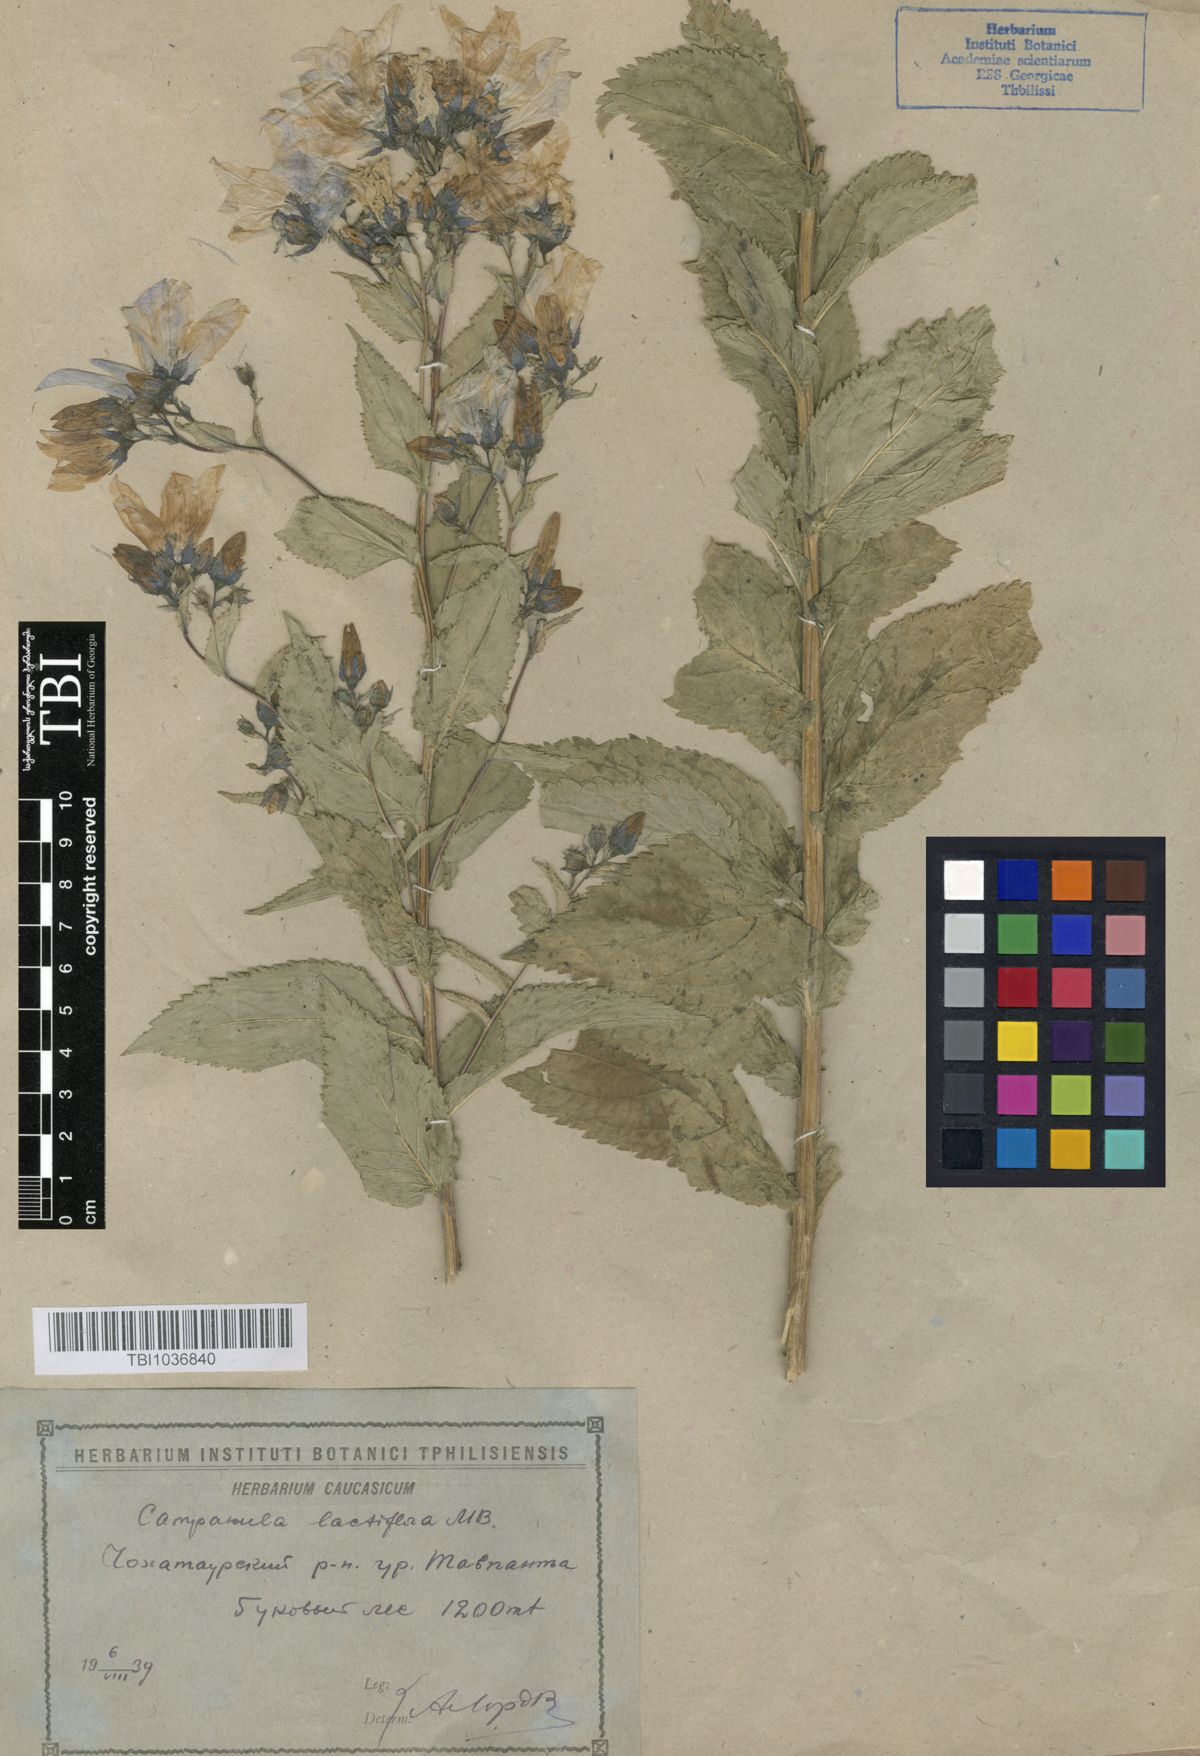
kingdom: Plantae
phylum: Tracheophyta
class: Magnoliopsida
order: Asterales
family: Campanulaceae
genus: Campanula
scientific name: Campanula lactiflora
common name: Milky bellflower
